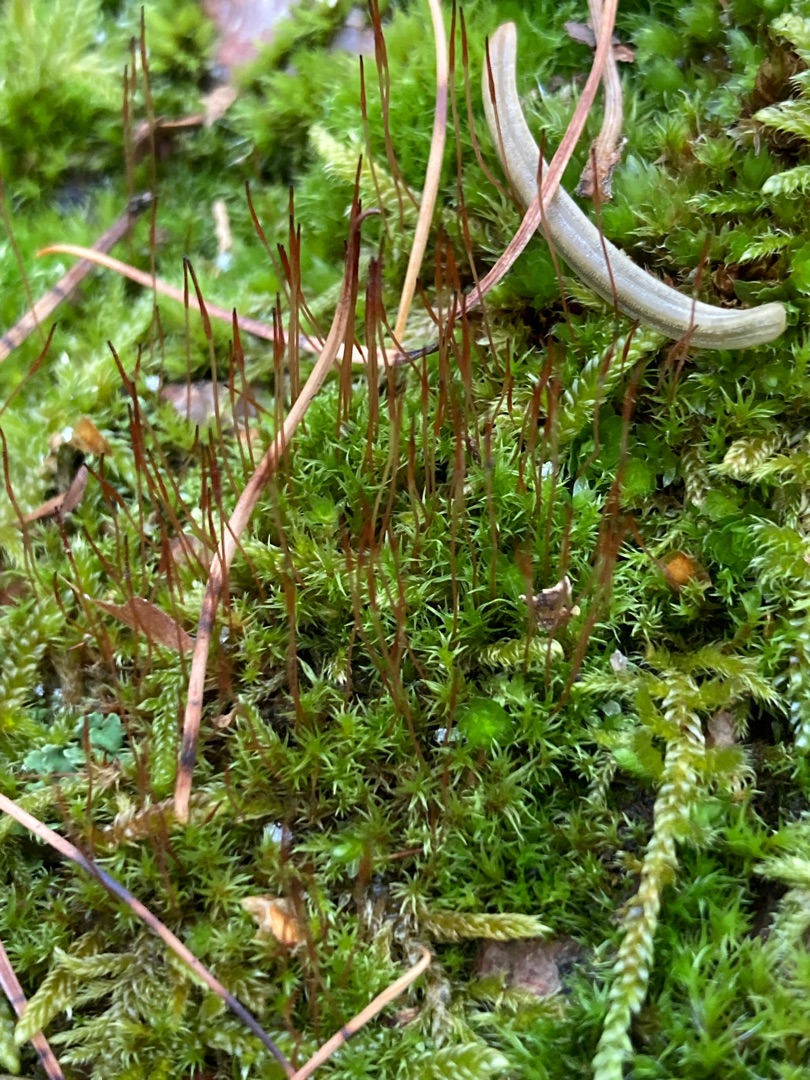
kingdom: Plantae
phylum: Bryophyta
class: Bryopsida
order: Dicranales
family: Ditrichaceae
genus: Ceratodon
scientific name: Ceratodon purpureus
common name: Rød horntand
